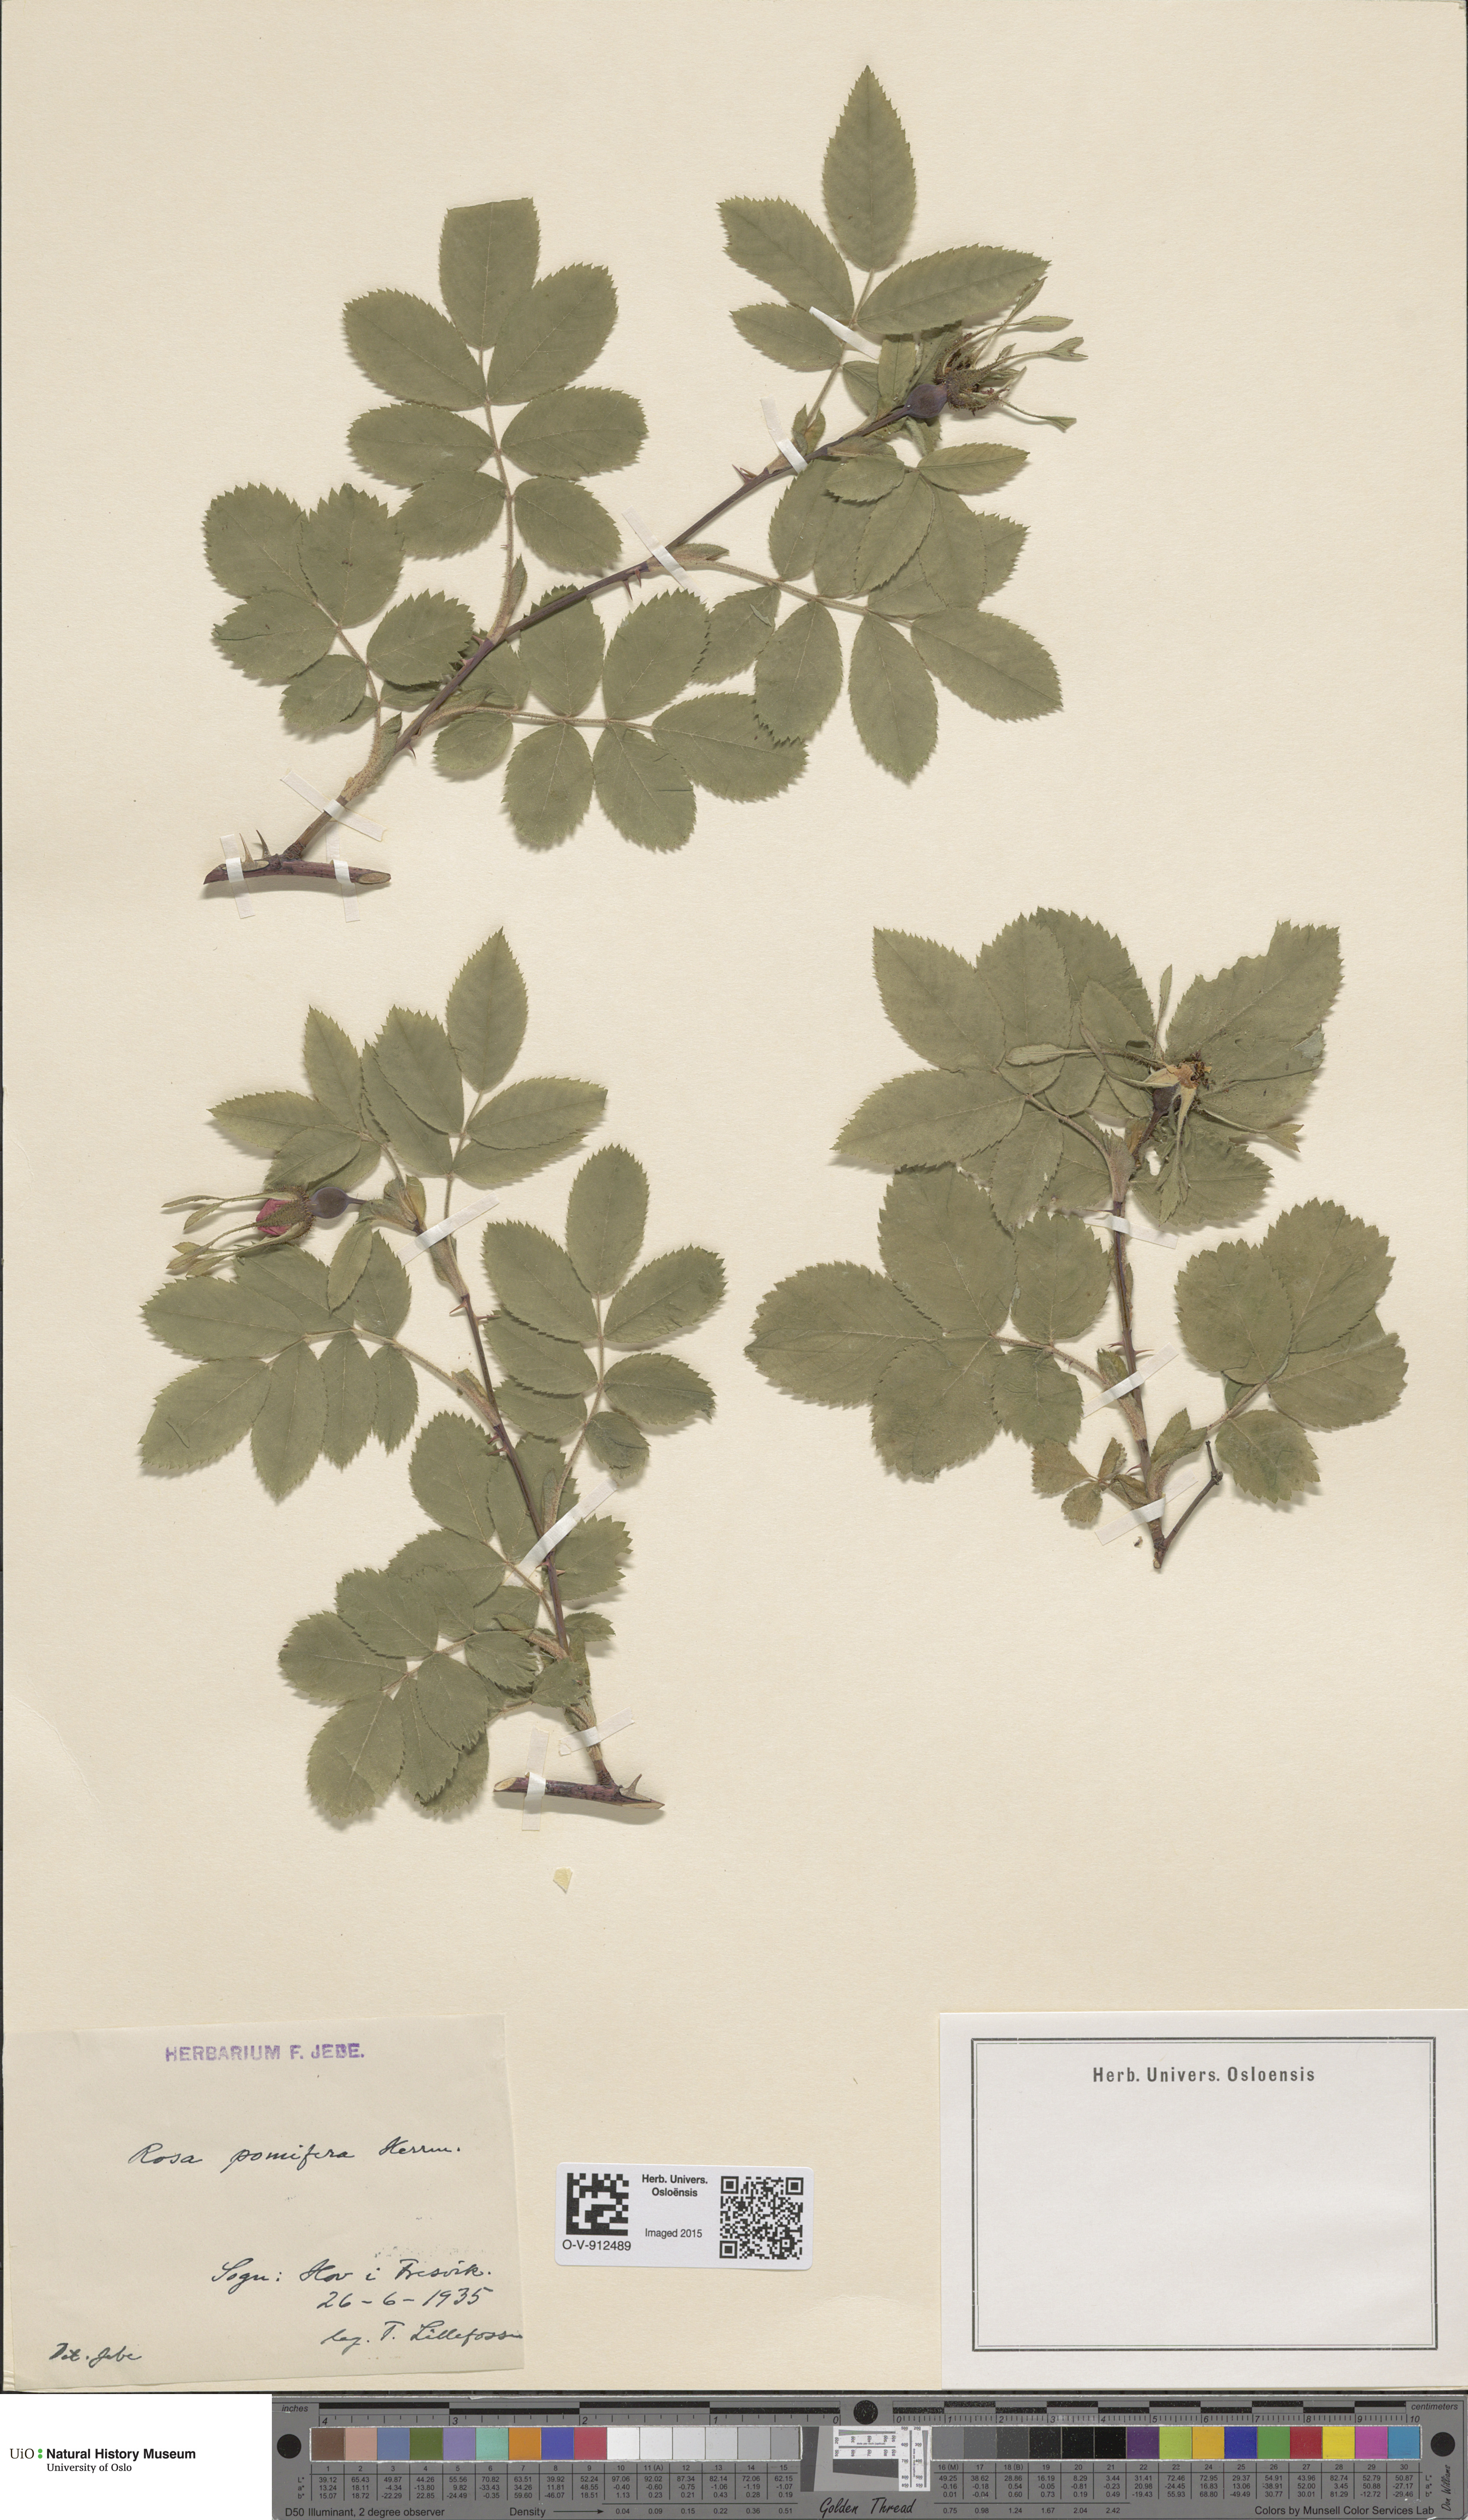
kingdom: Plantae
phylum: Tracheophyta
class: Magnoliopsida
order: Rosales
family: Rosaceae
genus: Rosa
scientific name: Rosa villosa
